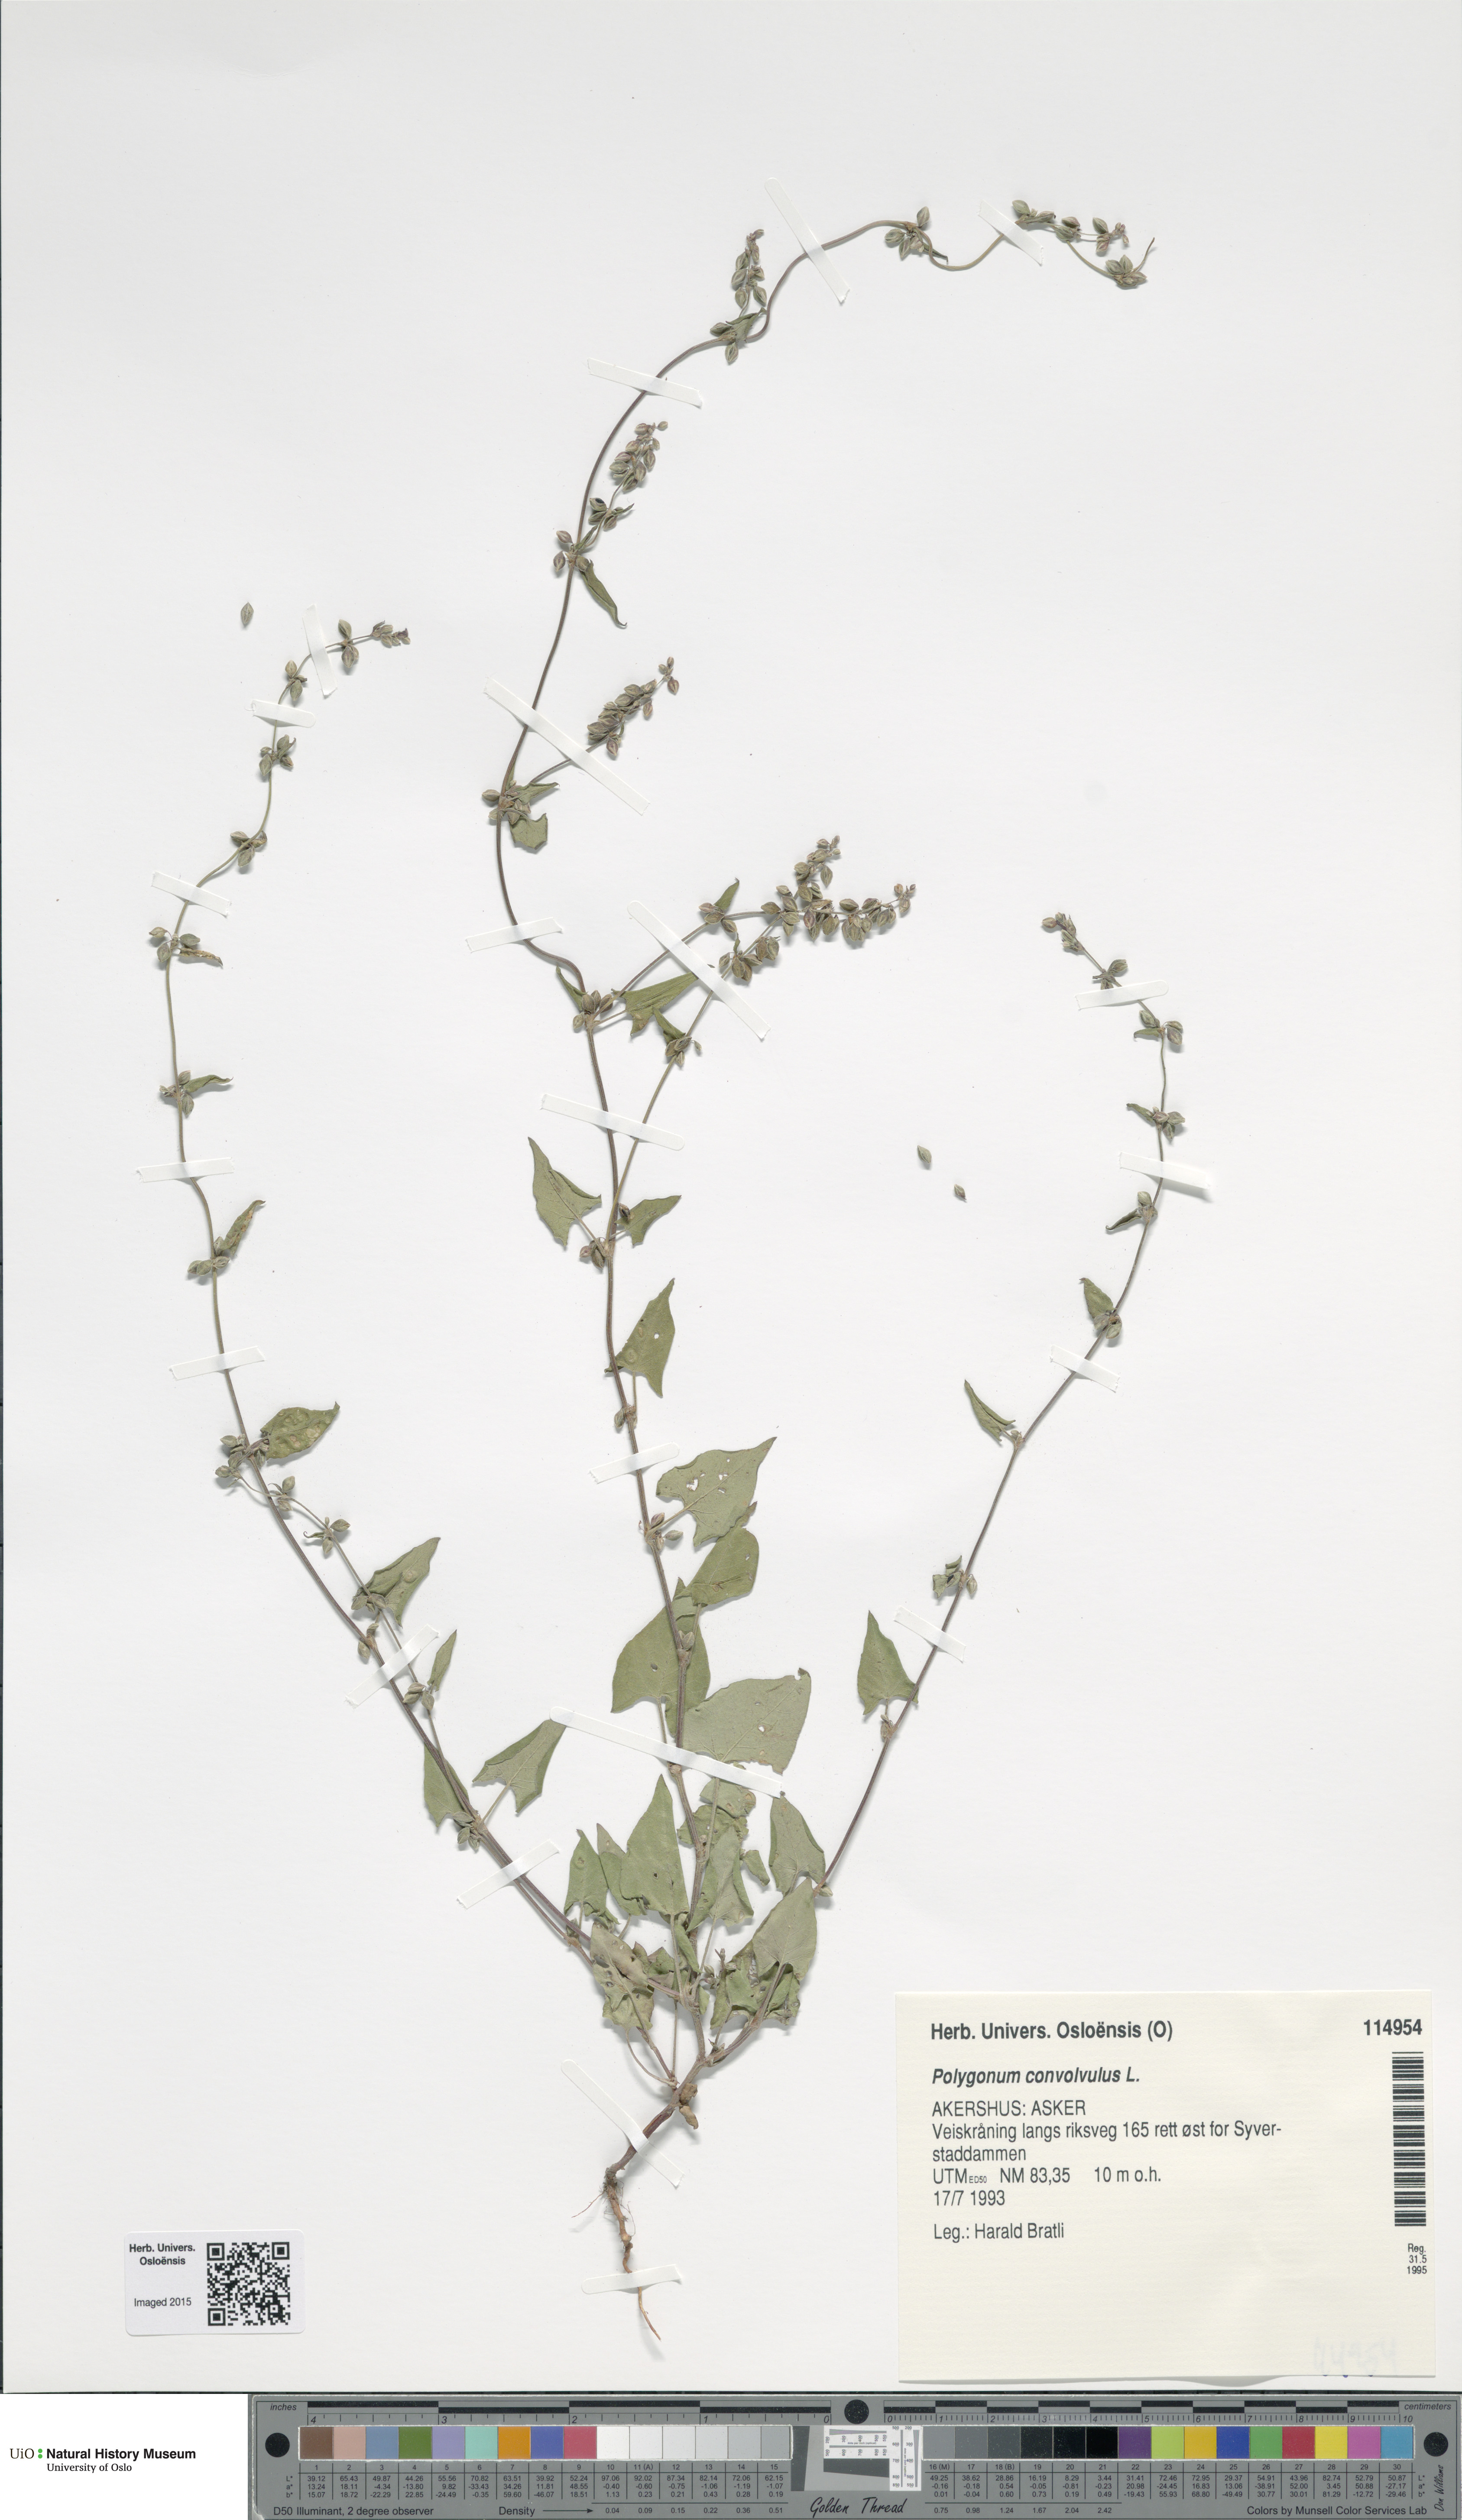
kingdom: Plantae
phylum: Tracheophyta
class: Magnoliopsida
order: Caryophyllales
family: Polygonaceae
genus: Fallopia
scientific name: Fallopia convolvulus
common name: Black bindweed
